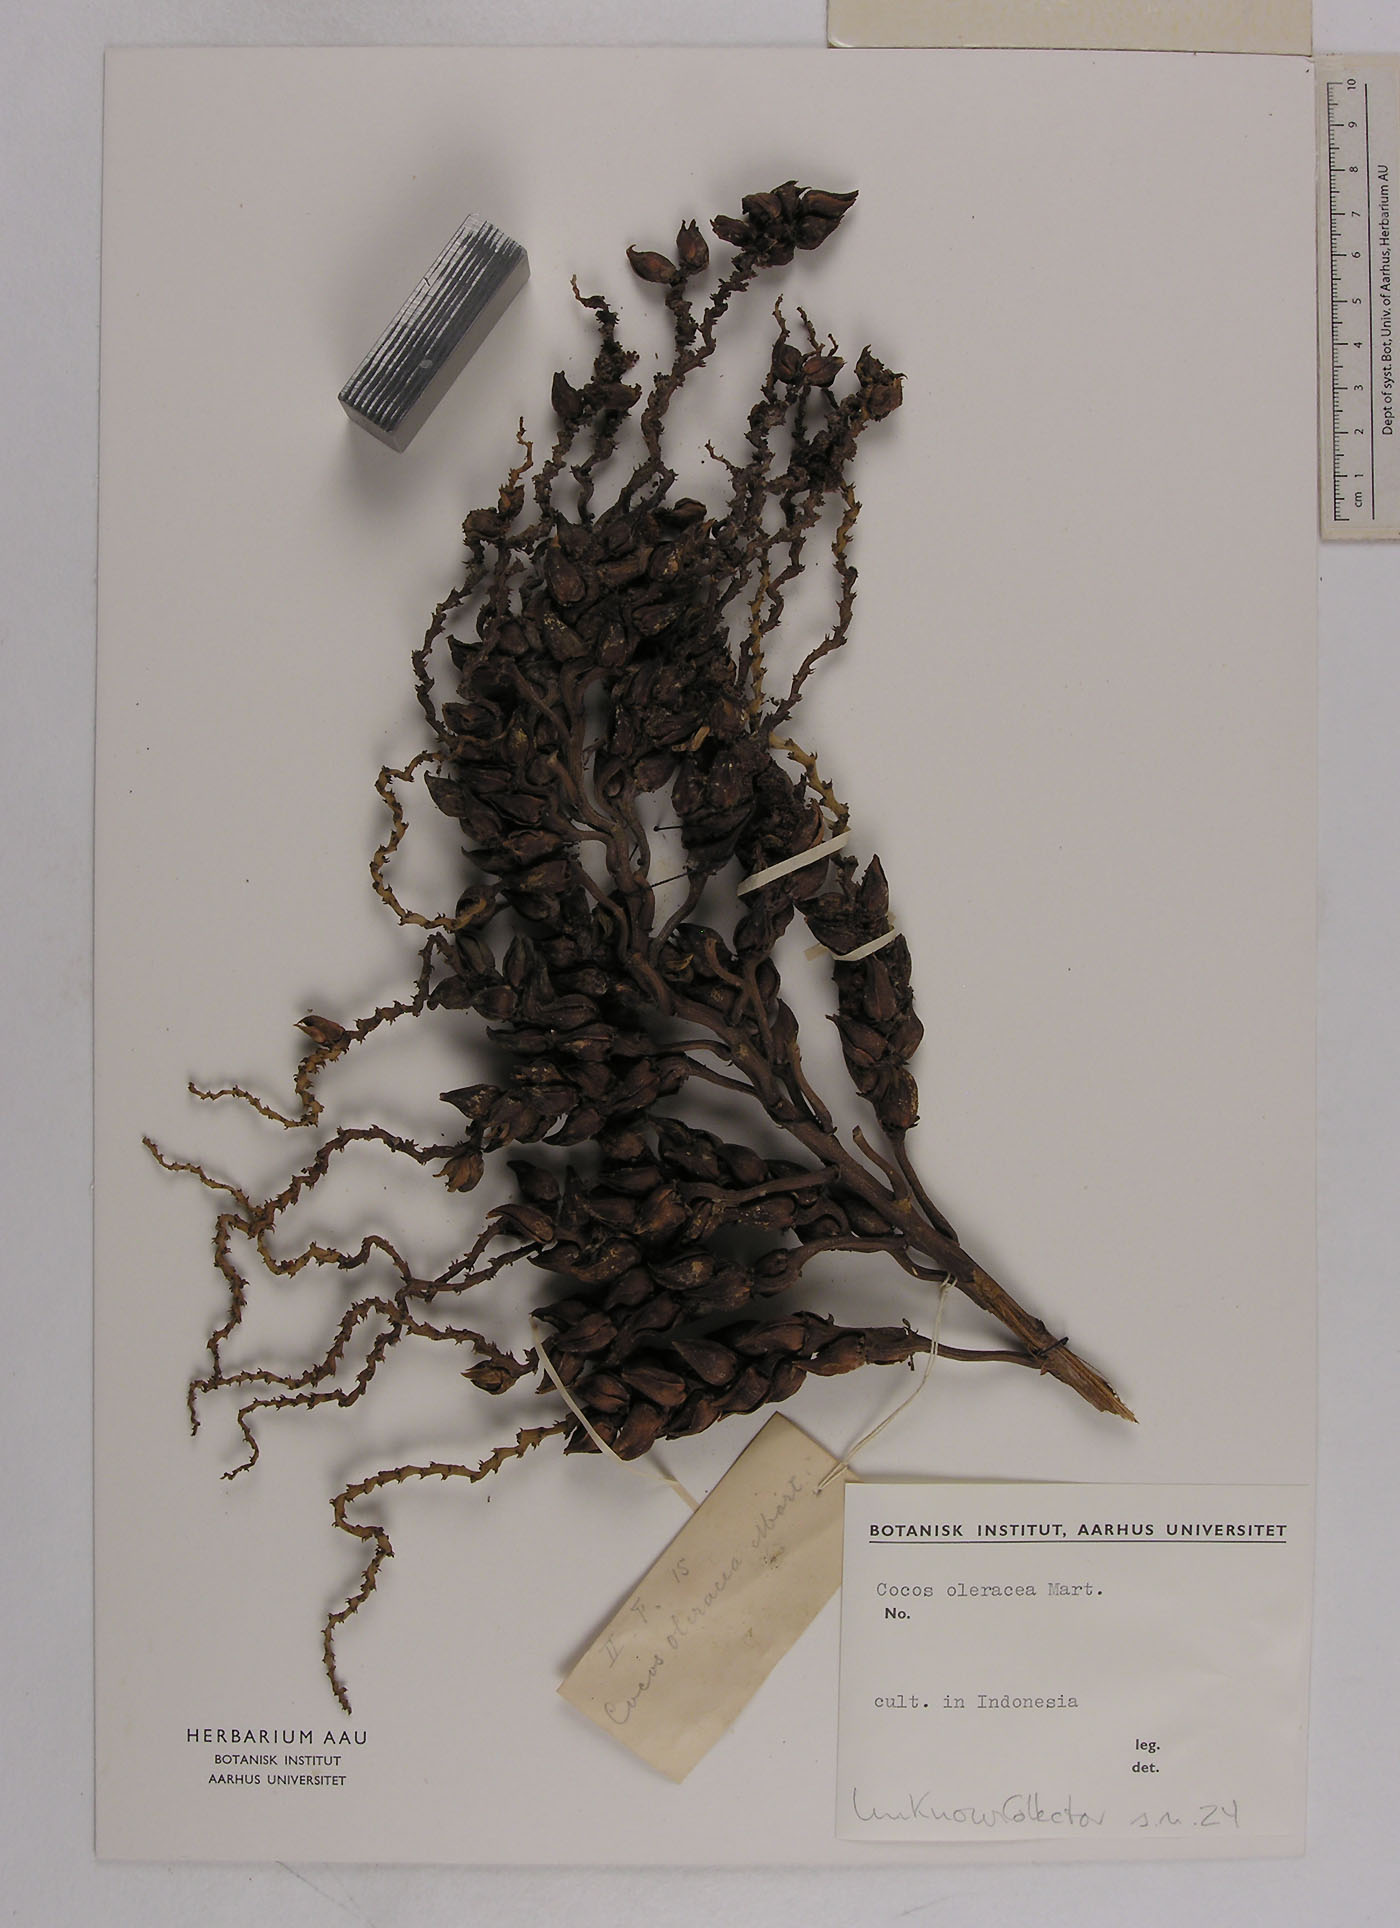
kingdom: Plantae
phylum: Tracheophyta
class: Liliopsida
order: Arecales
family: Arecaceae
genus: Syagrus
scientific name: Syagrus oleracea
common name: Catole palm
